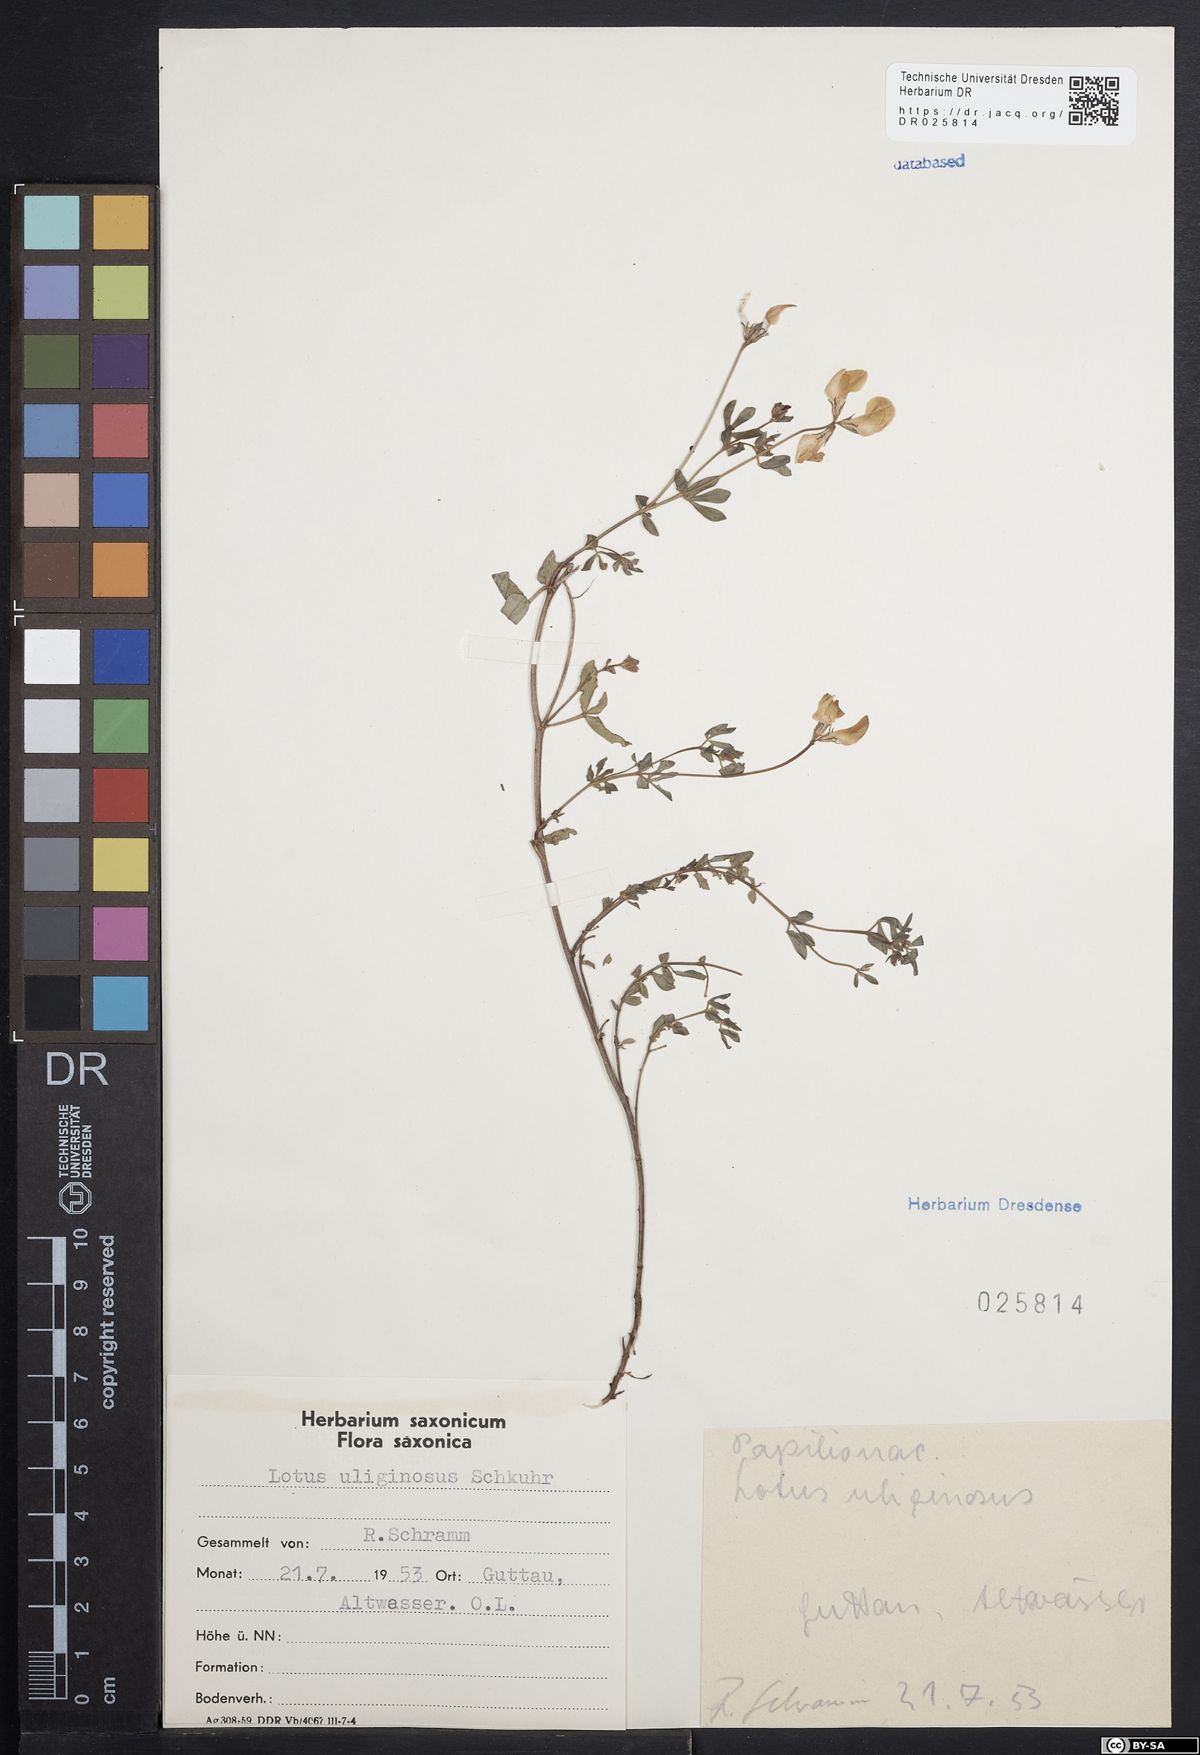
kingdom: Plantae
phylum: Tracheophyta
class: Magnoliopsida
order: Fabales
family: Fabaceae
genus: Lotus
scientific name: Lotus pedunculatus
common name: Greater birdsfoot-trefoil
